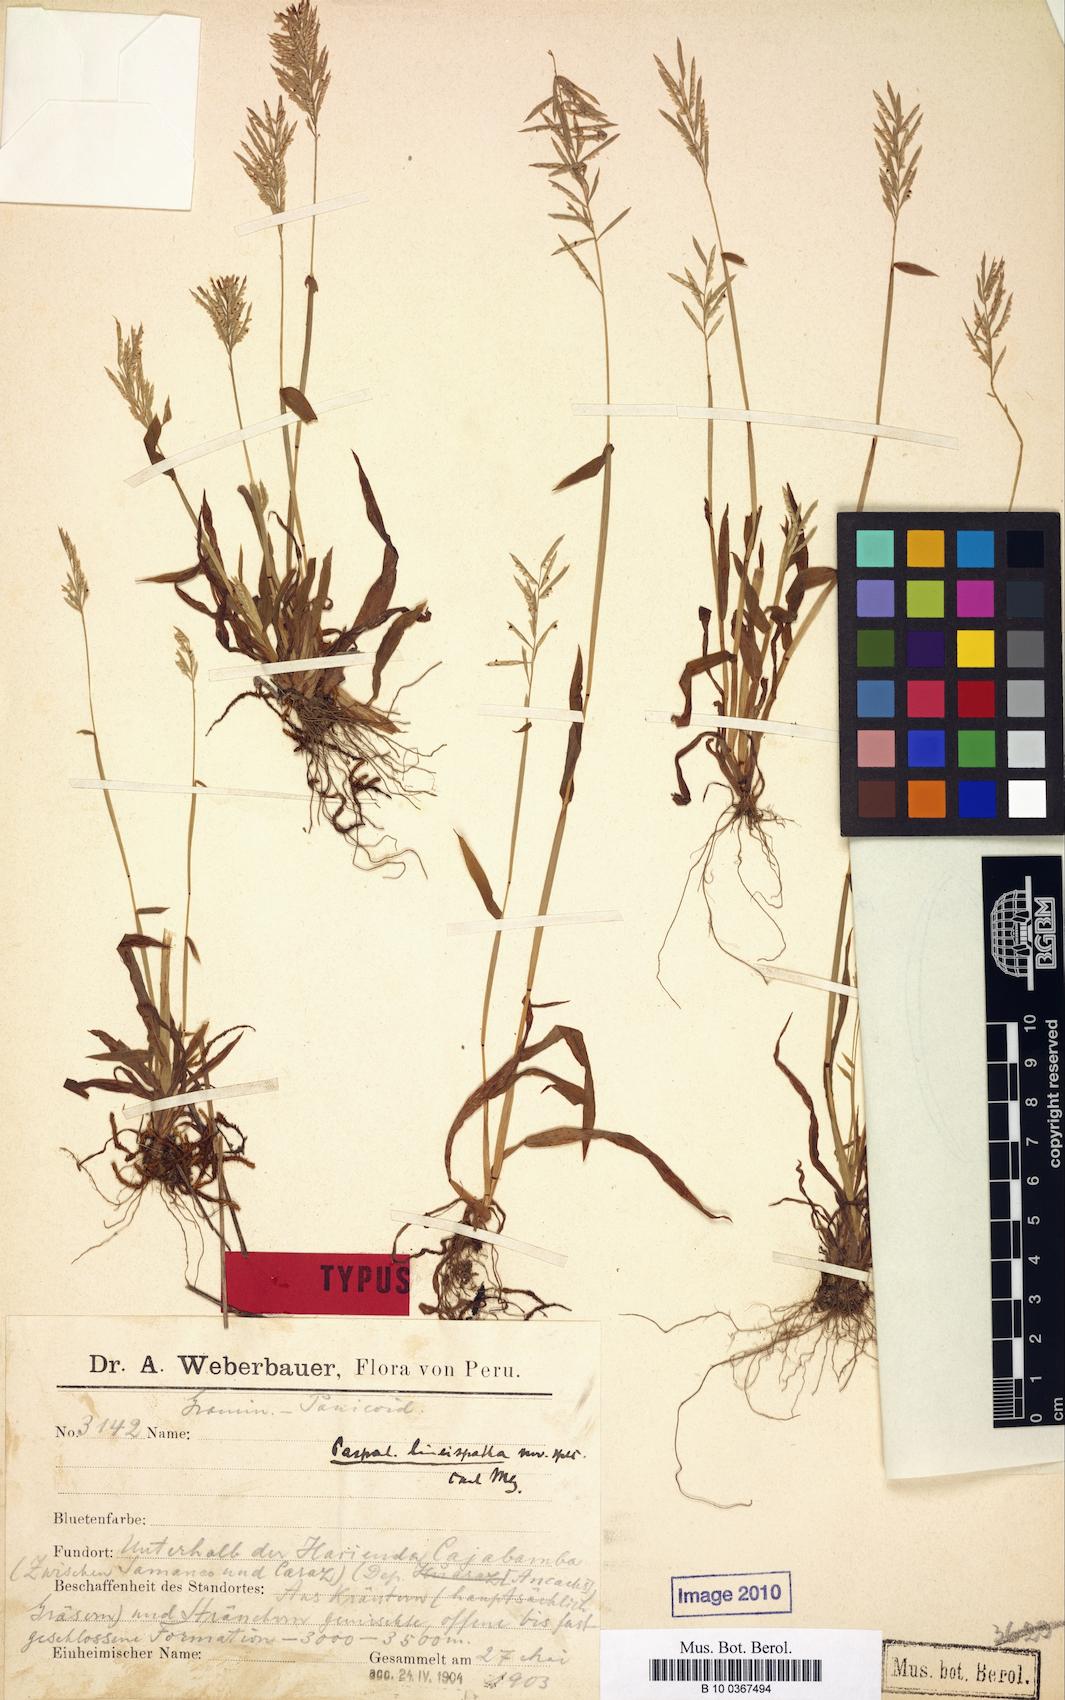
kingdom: Plantae
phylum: Tracheophyta
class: Liliopsida
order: Poales
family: Poaceae
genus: Paspalum
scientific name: Paspalum candidum
